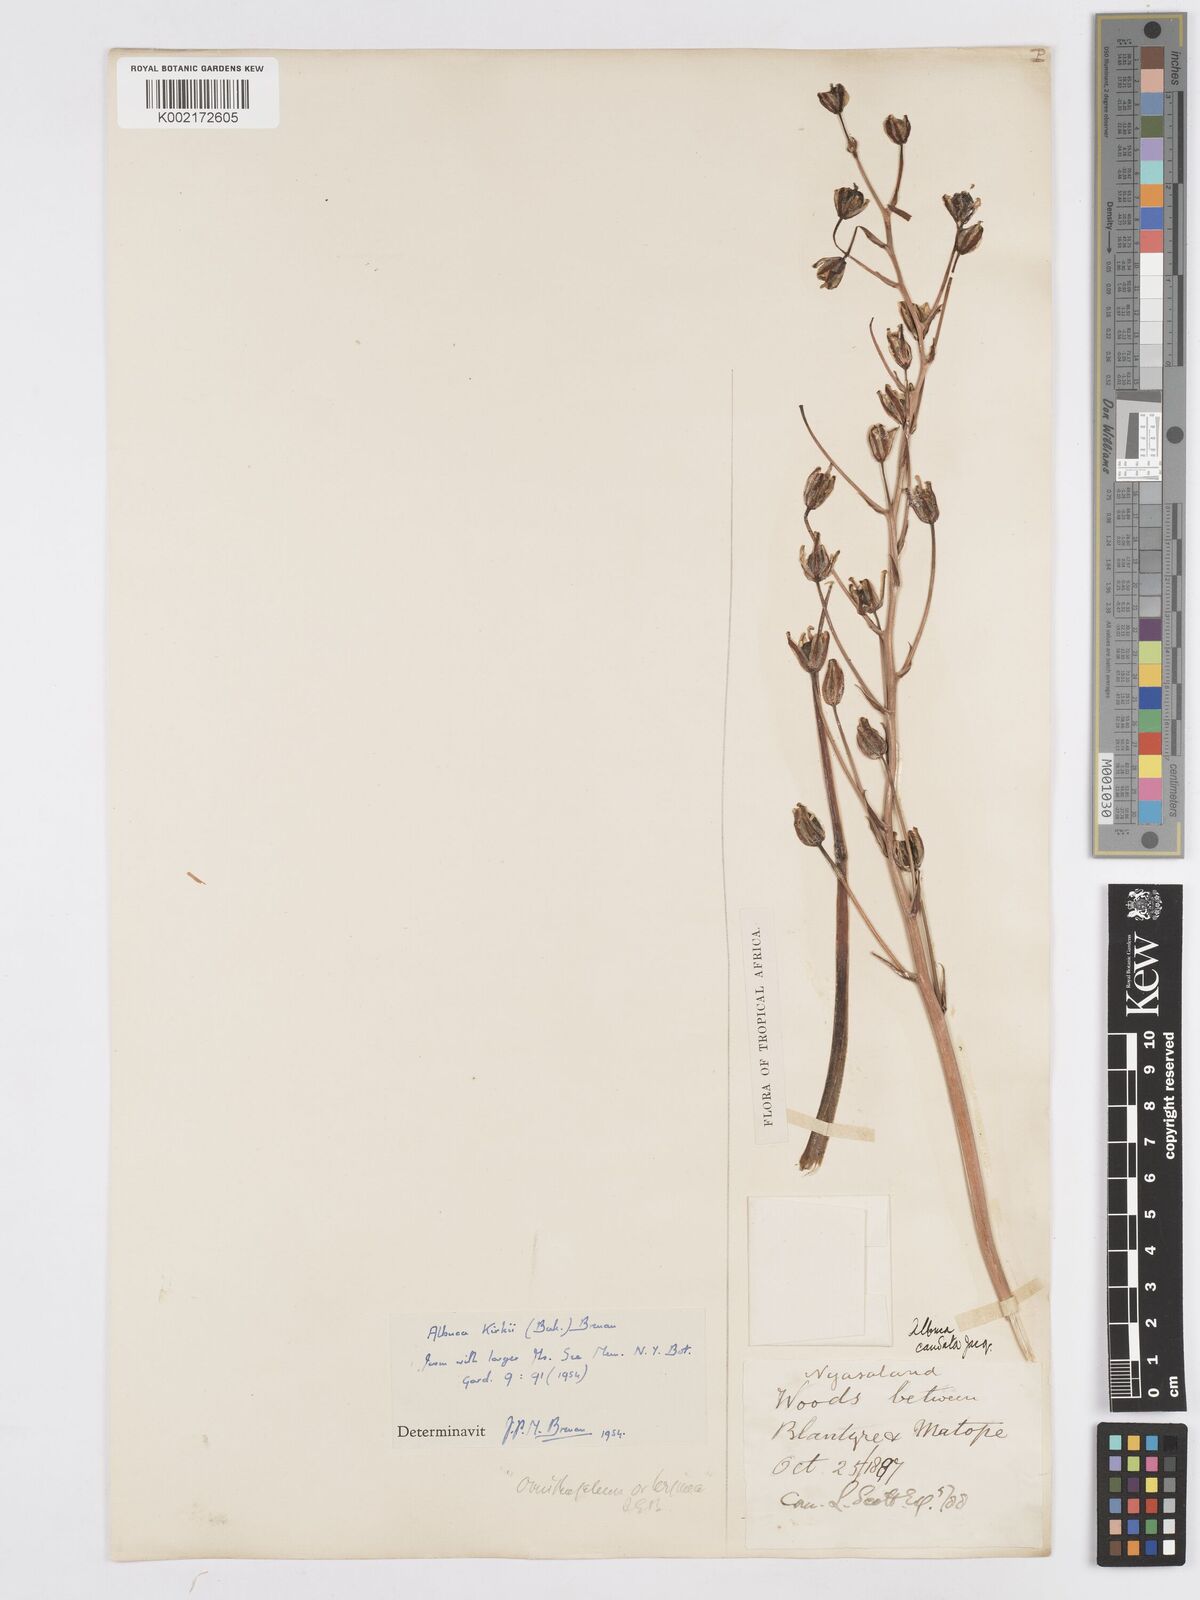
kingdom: Plantae
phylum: Tracheophyta
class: Liliopsida
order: Asparagales
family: Asparagaceae
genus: Albuca
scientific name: Albuca kirkii
